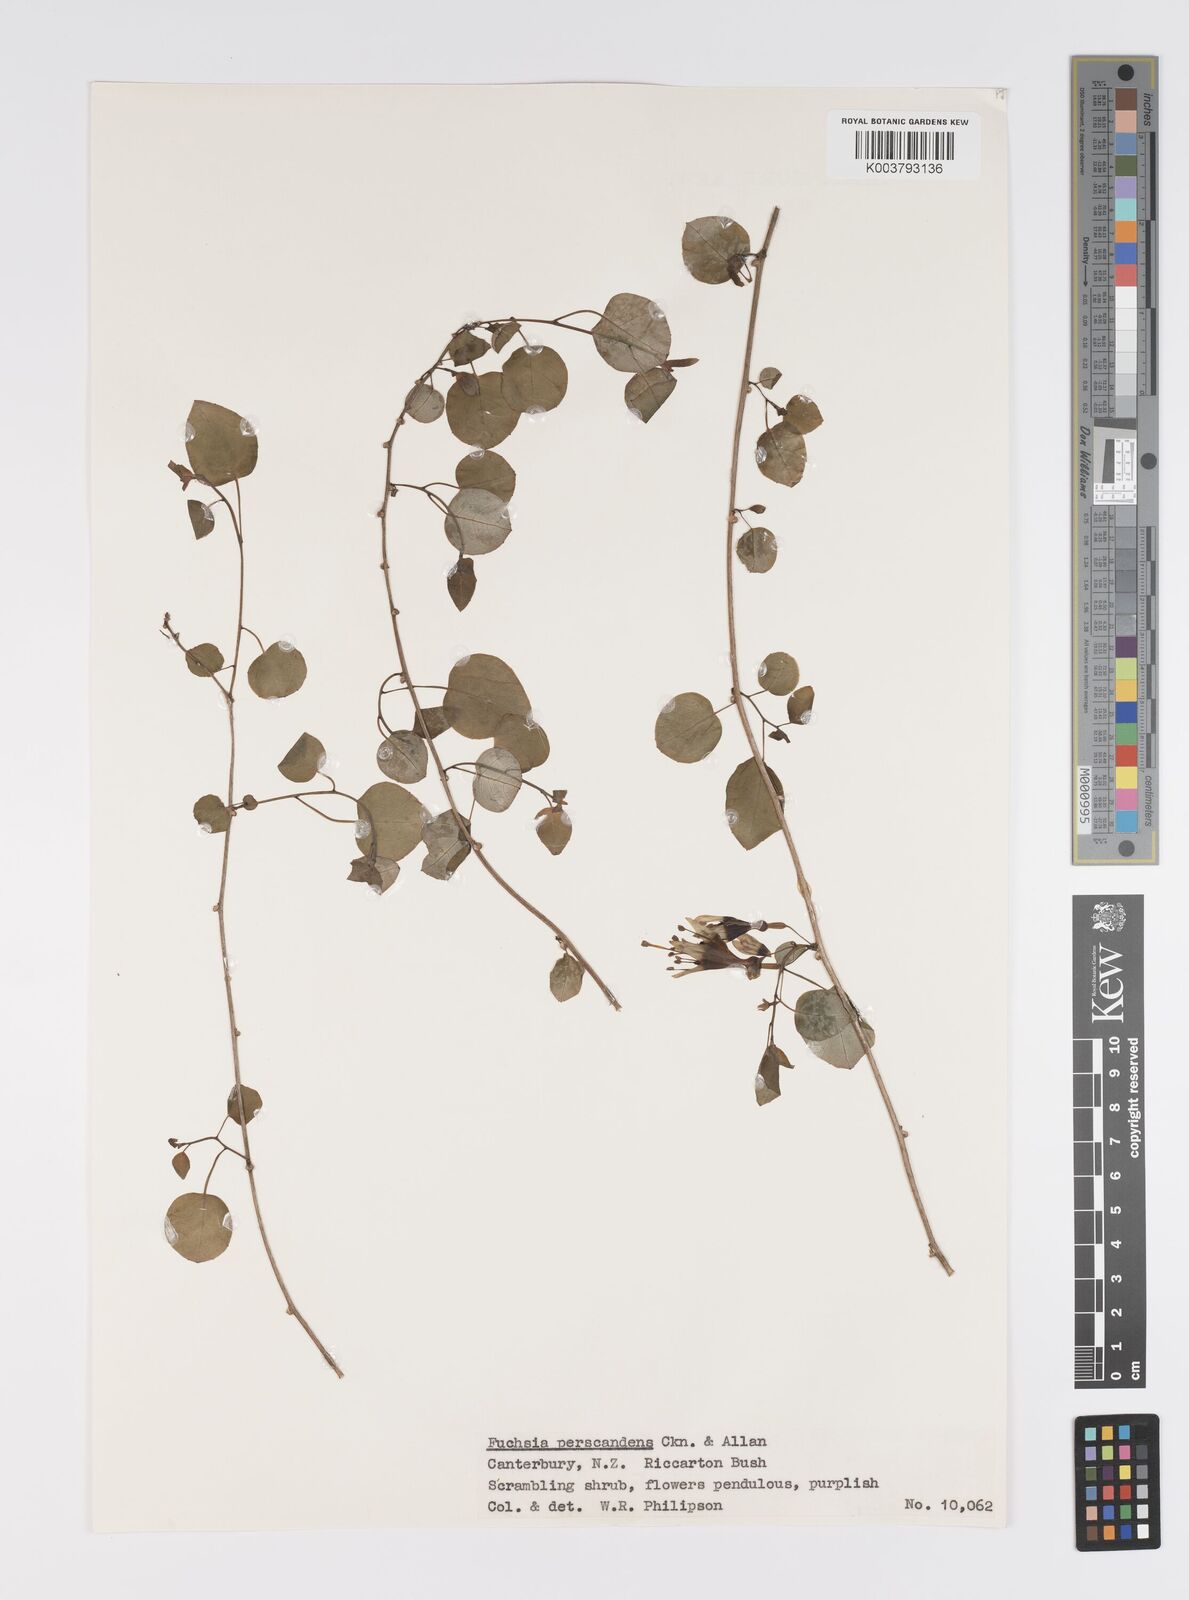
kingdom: Plantae
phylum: Tracheophyta
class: Magnoliopsida
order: Myrtales
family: Onagraceae
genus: Fuchsia
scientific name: Fuchsia perscandens
